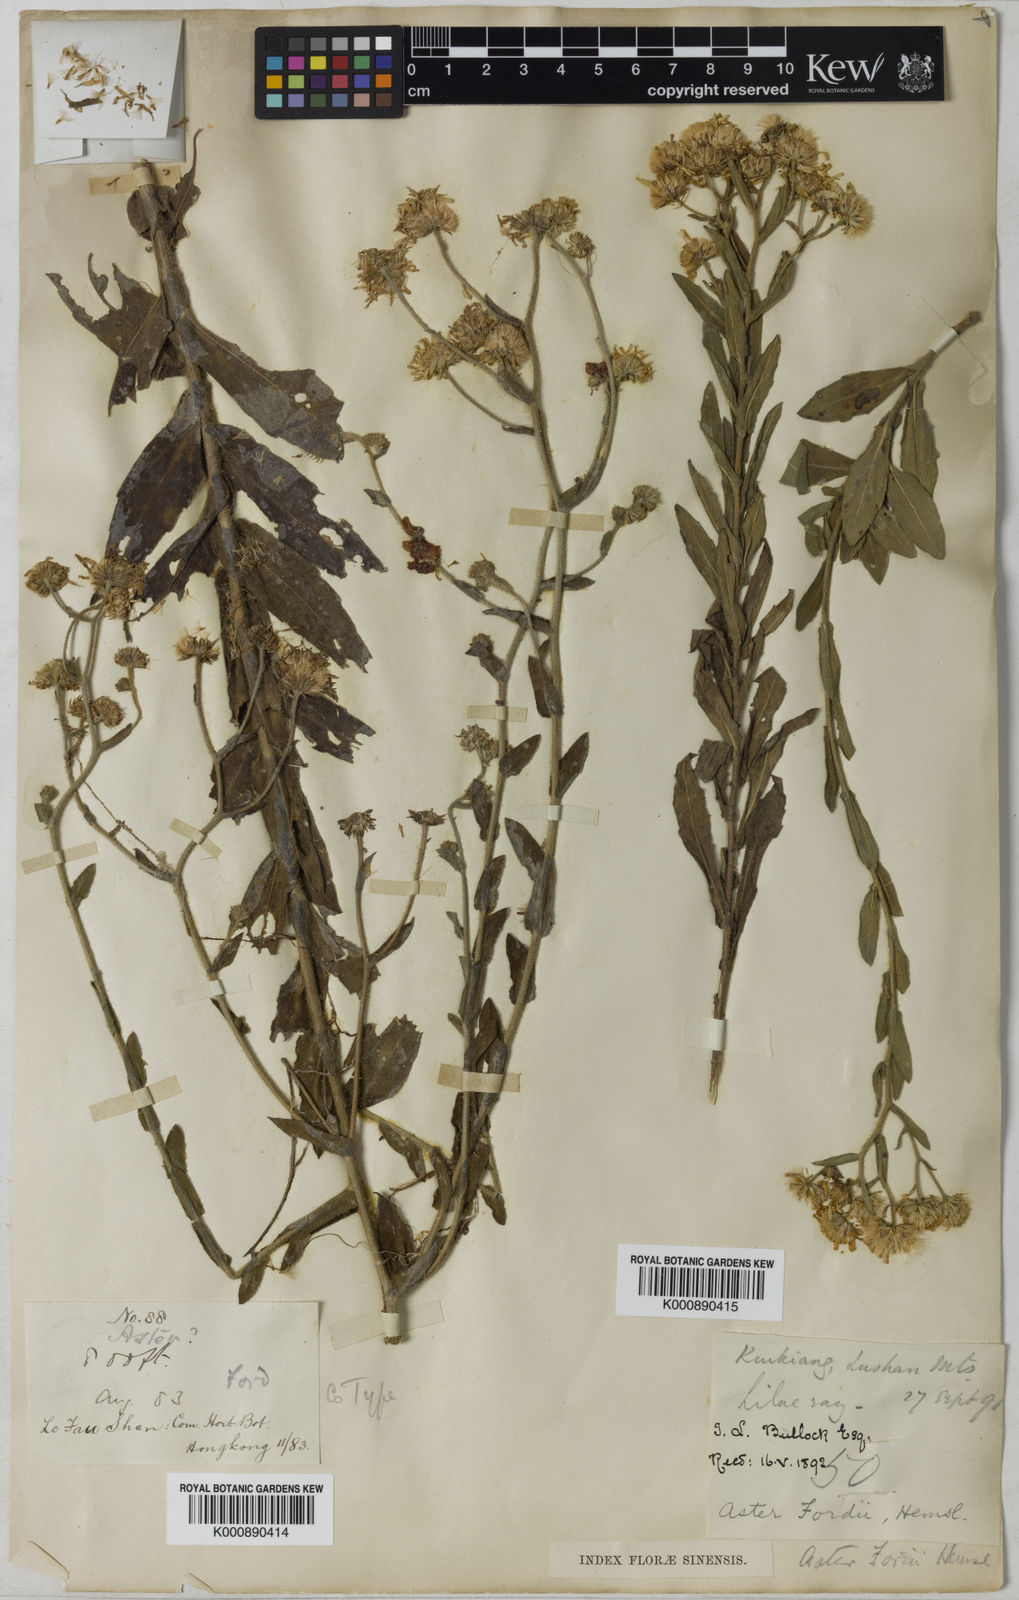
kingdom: Plantae
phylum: Tracheophyta
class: Magnoliopsida
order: Asterales
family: Asteraceae
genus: Heteropappus
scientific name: Heteropappus sampsonii
